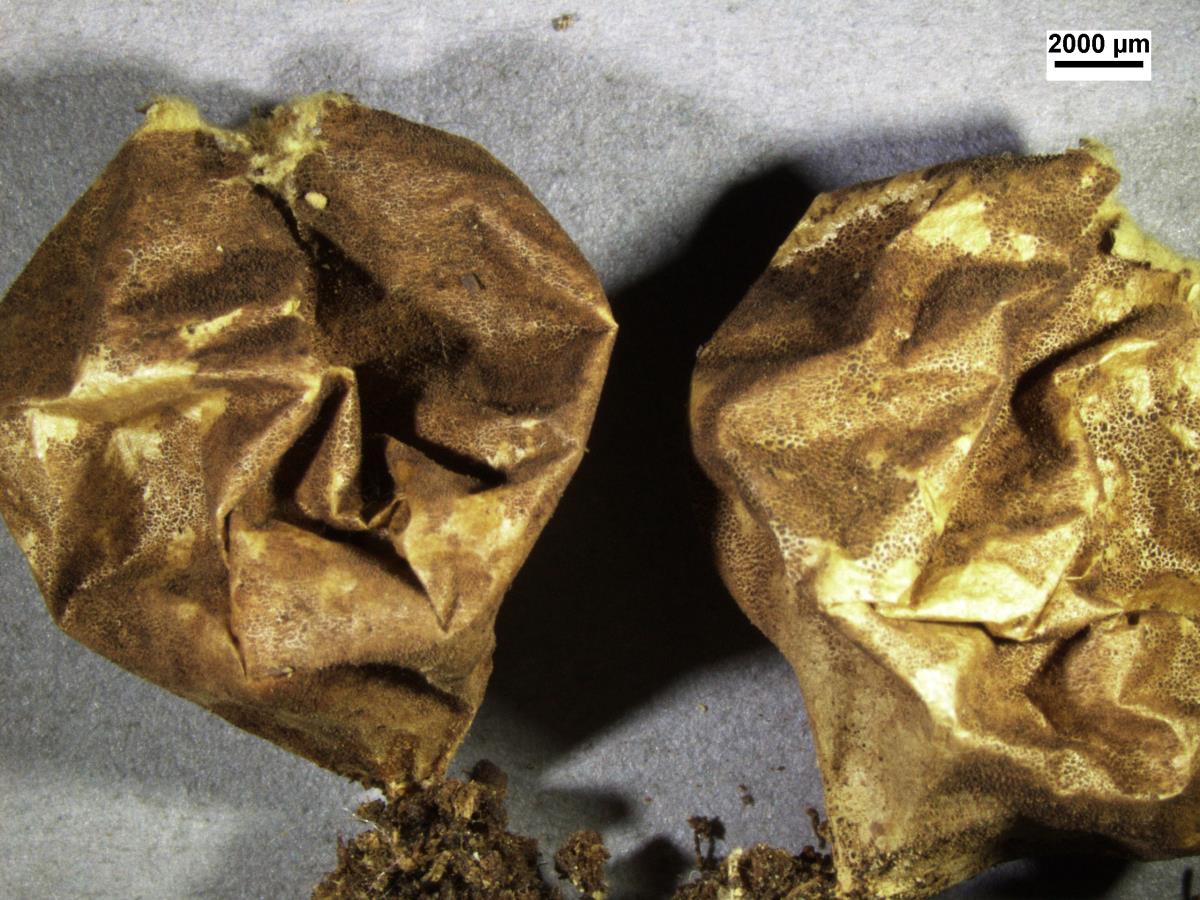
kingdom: Fungi
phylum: Basidiomycota
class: Agaricomycetes
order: Agaricales
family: Lycoperdaceae
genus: Bovista
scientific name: Bovista gunnii
